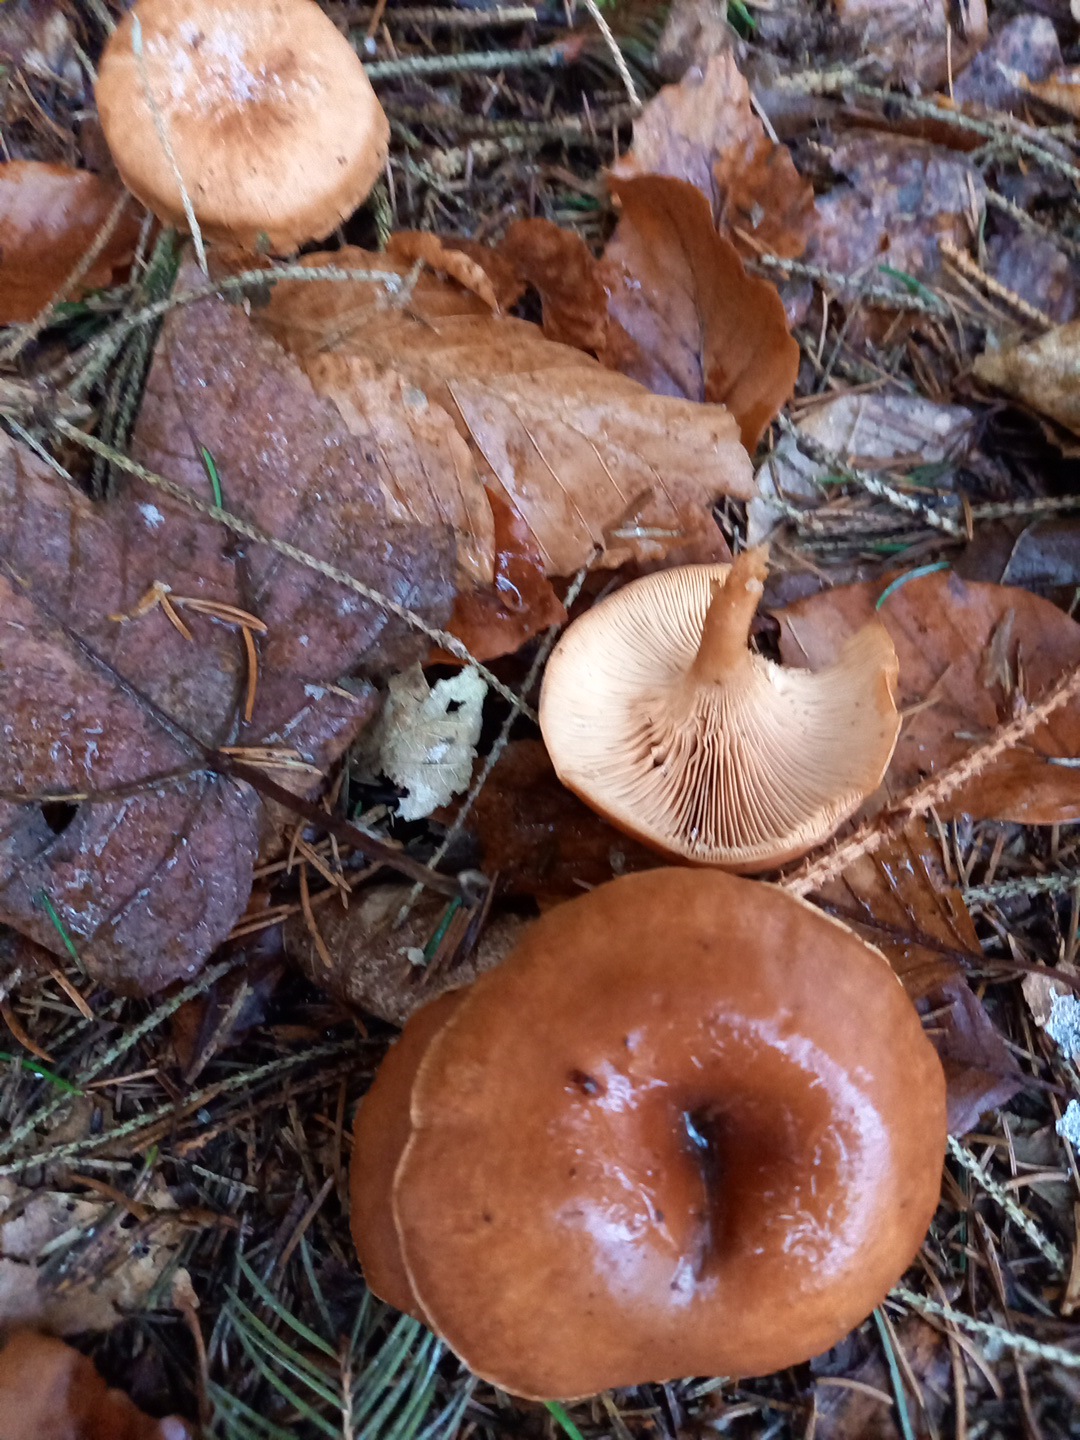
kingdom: Fungi
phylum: Basidiomycota
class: Agaricomycetes
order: Agaricales
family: Tricholomataceae
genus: Paralepista
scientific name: Paralepista flaccida
